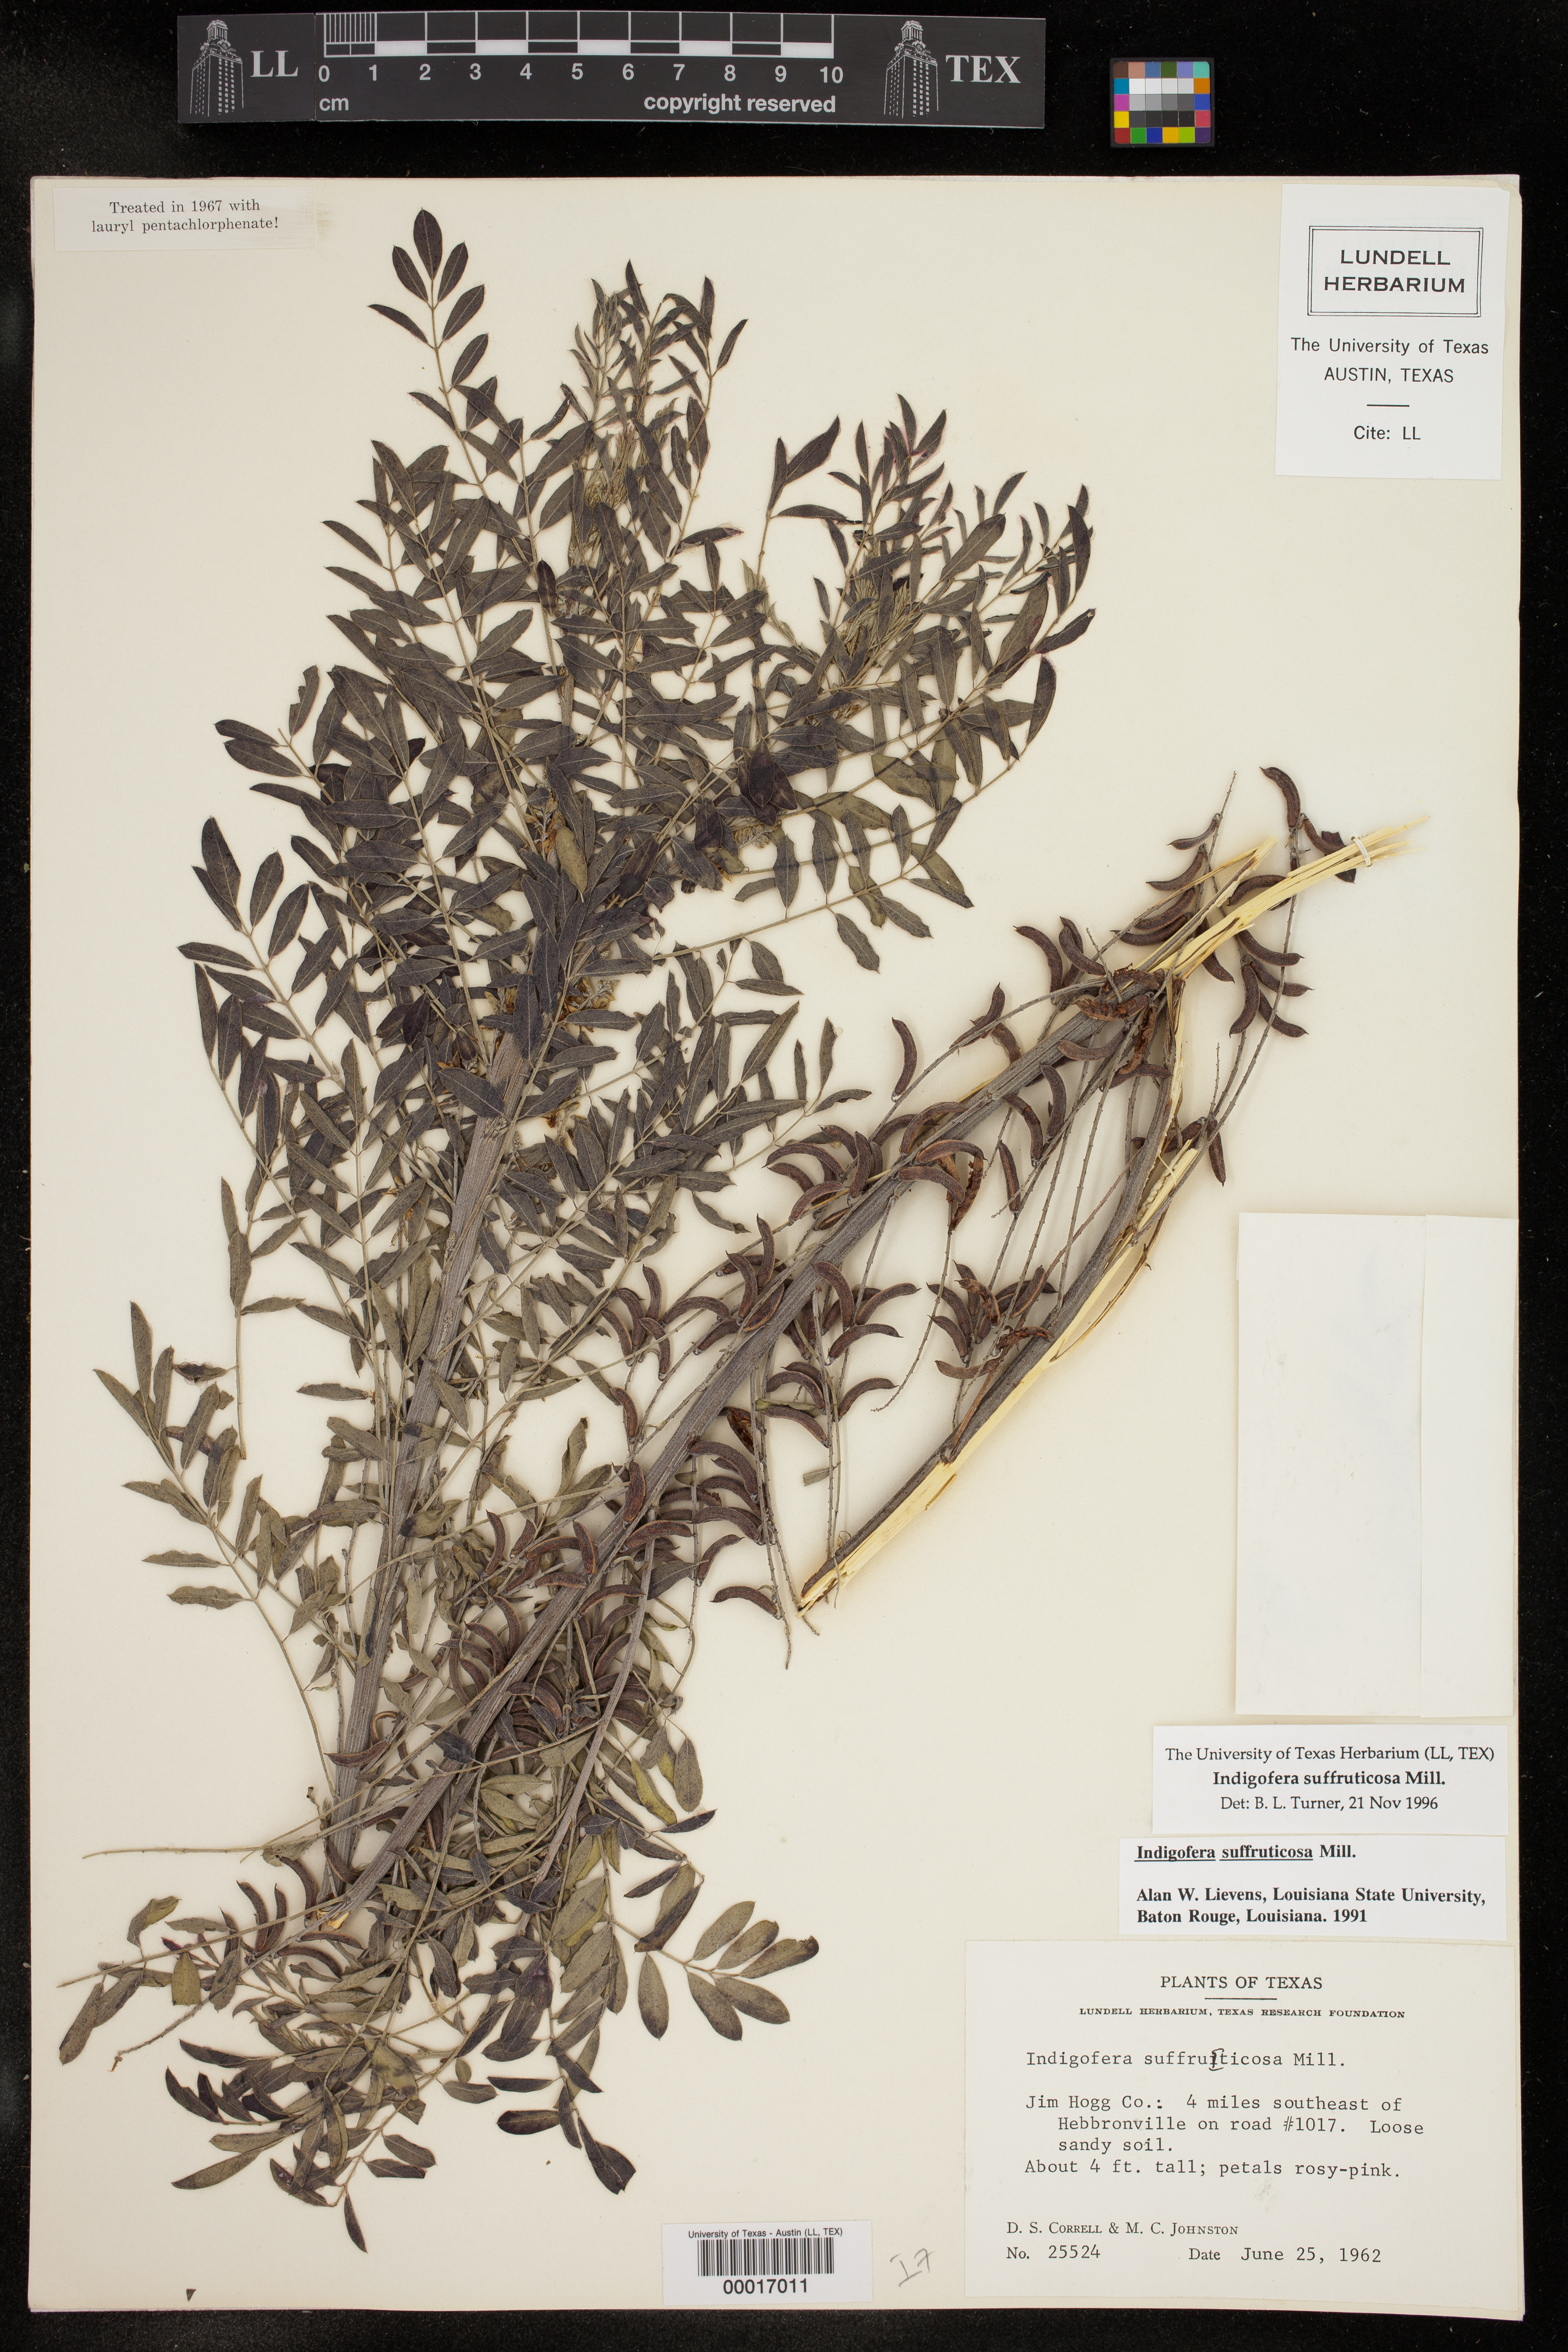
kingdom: Plantae
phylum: Tracheophyta
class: Magnoliopsida
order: Fabales
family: Fabaceae
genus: Indigofera
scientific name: Indigofera suffruticosa
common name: Anil de pasto
